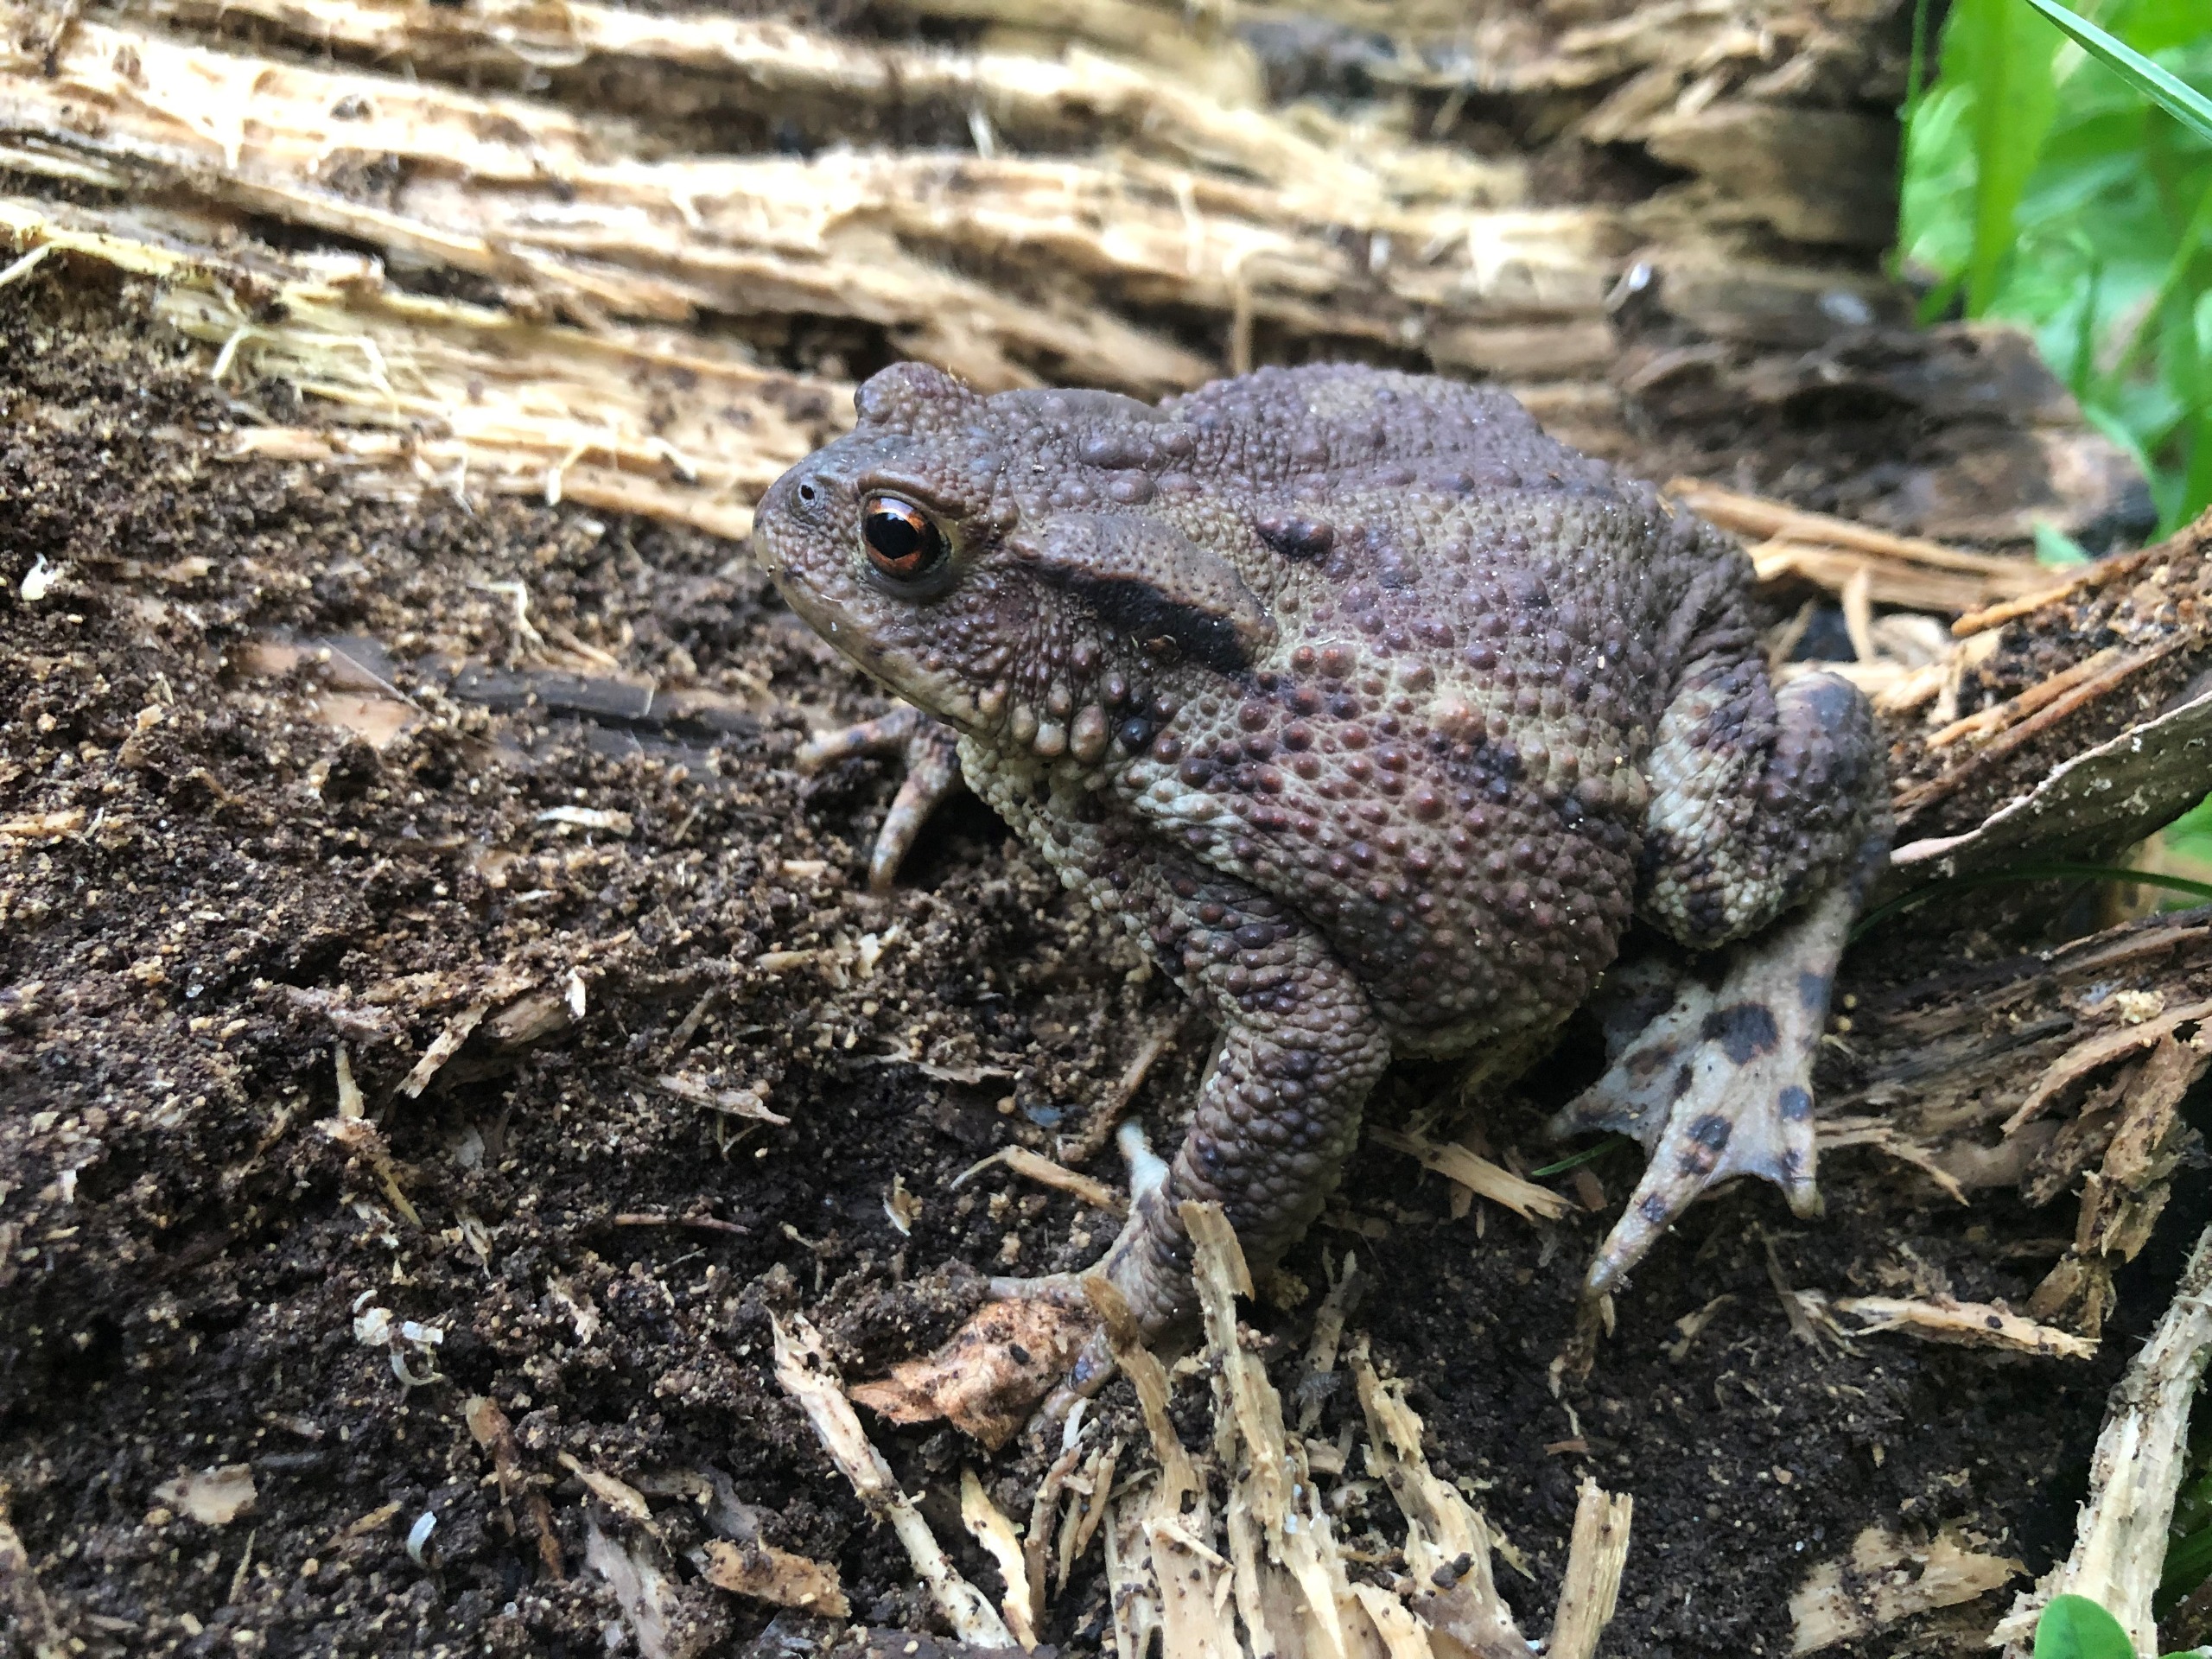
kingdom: Animalia
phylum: Chordata
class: Amphibia
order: Anura
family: Bufonidae
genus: Bufo
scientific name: Bufo bufo
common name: Skrubtudse
